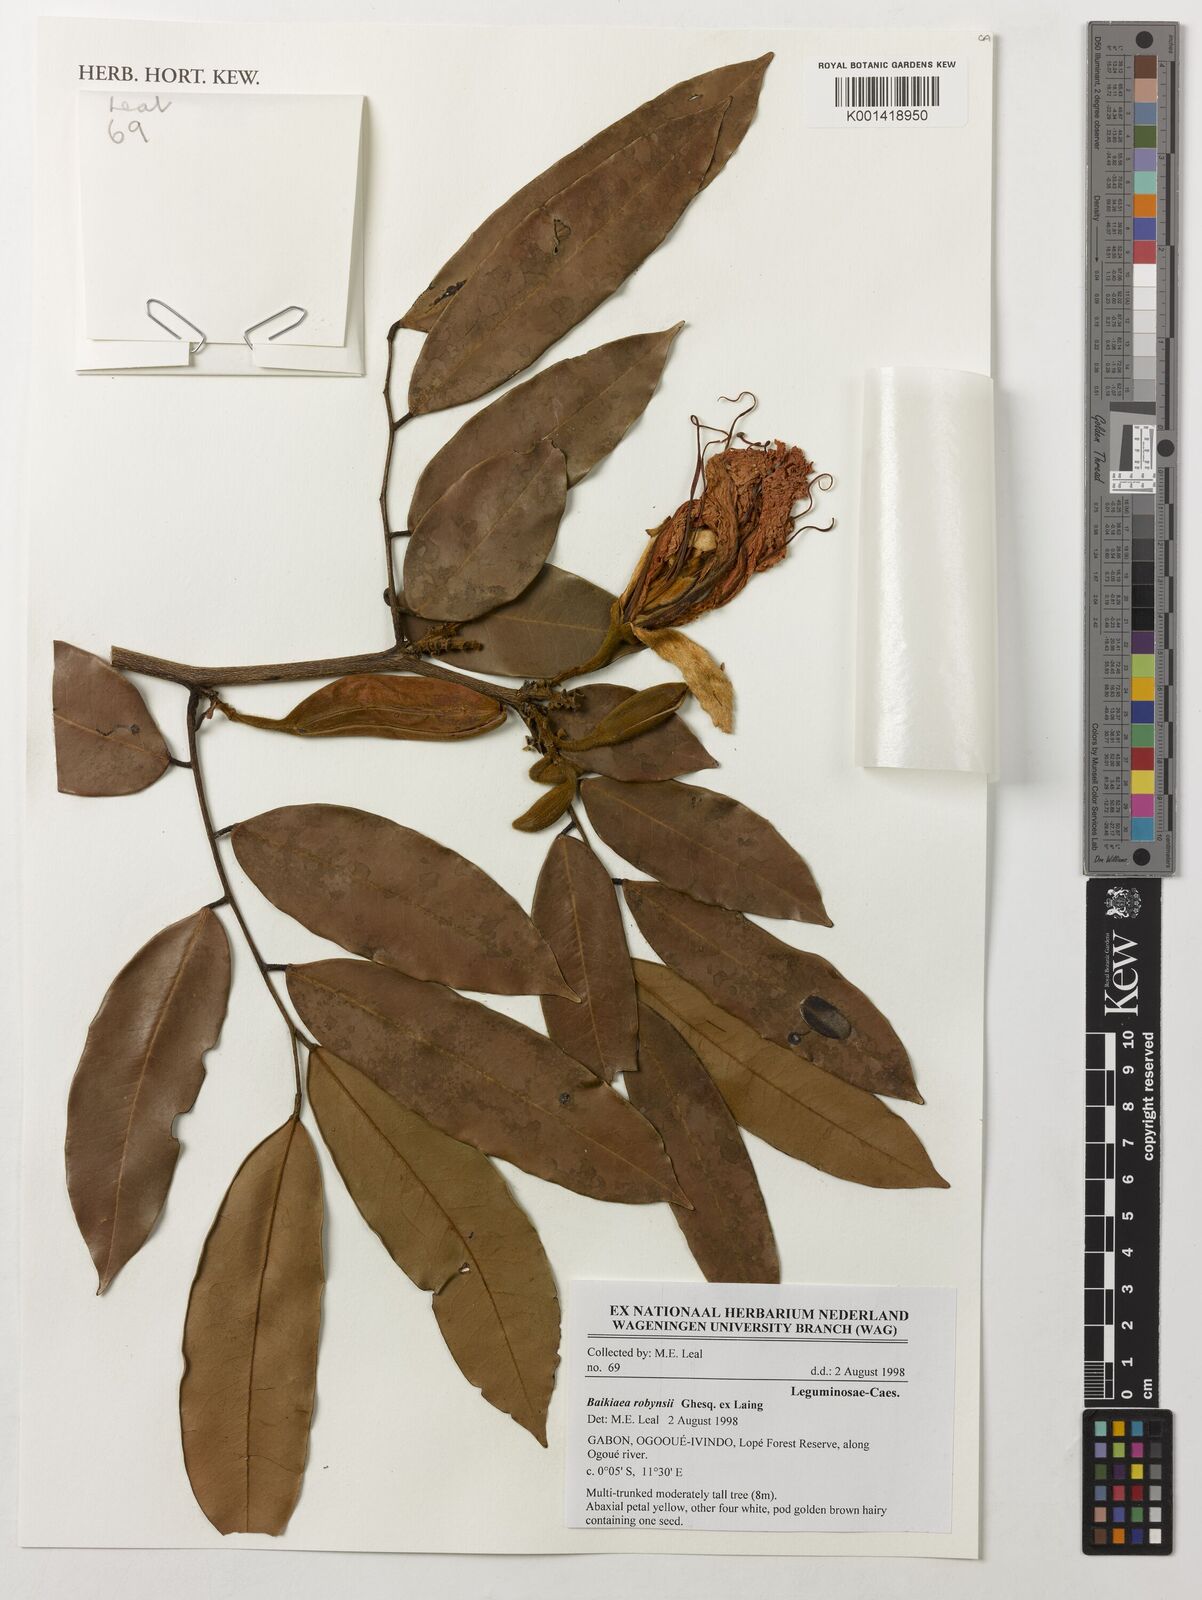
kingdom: Plantae
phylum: Tracheophyta
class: Magnoliopsida
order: Fabales
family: Fabaceae
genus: Baikiaea
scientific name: Baikiaea robynsii
